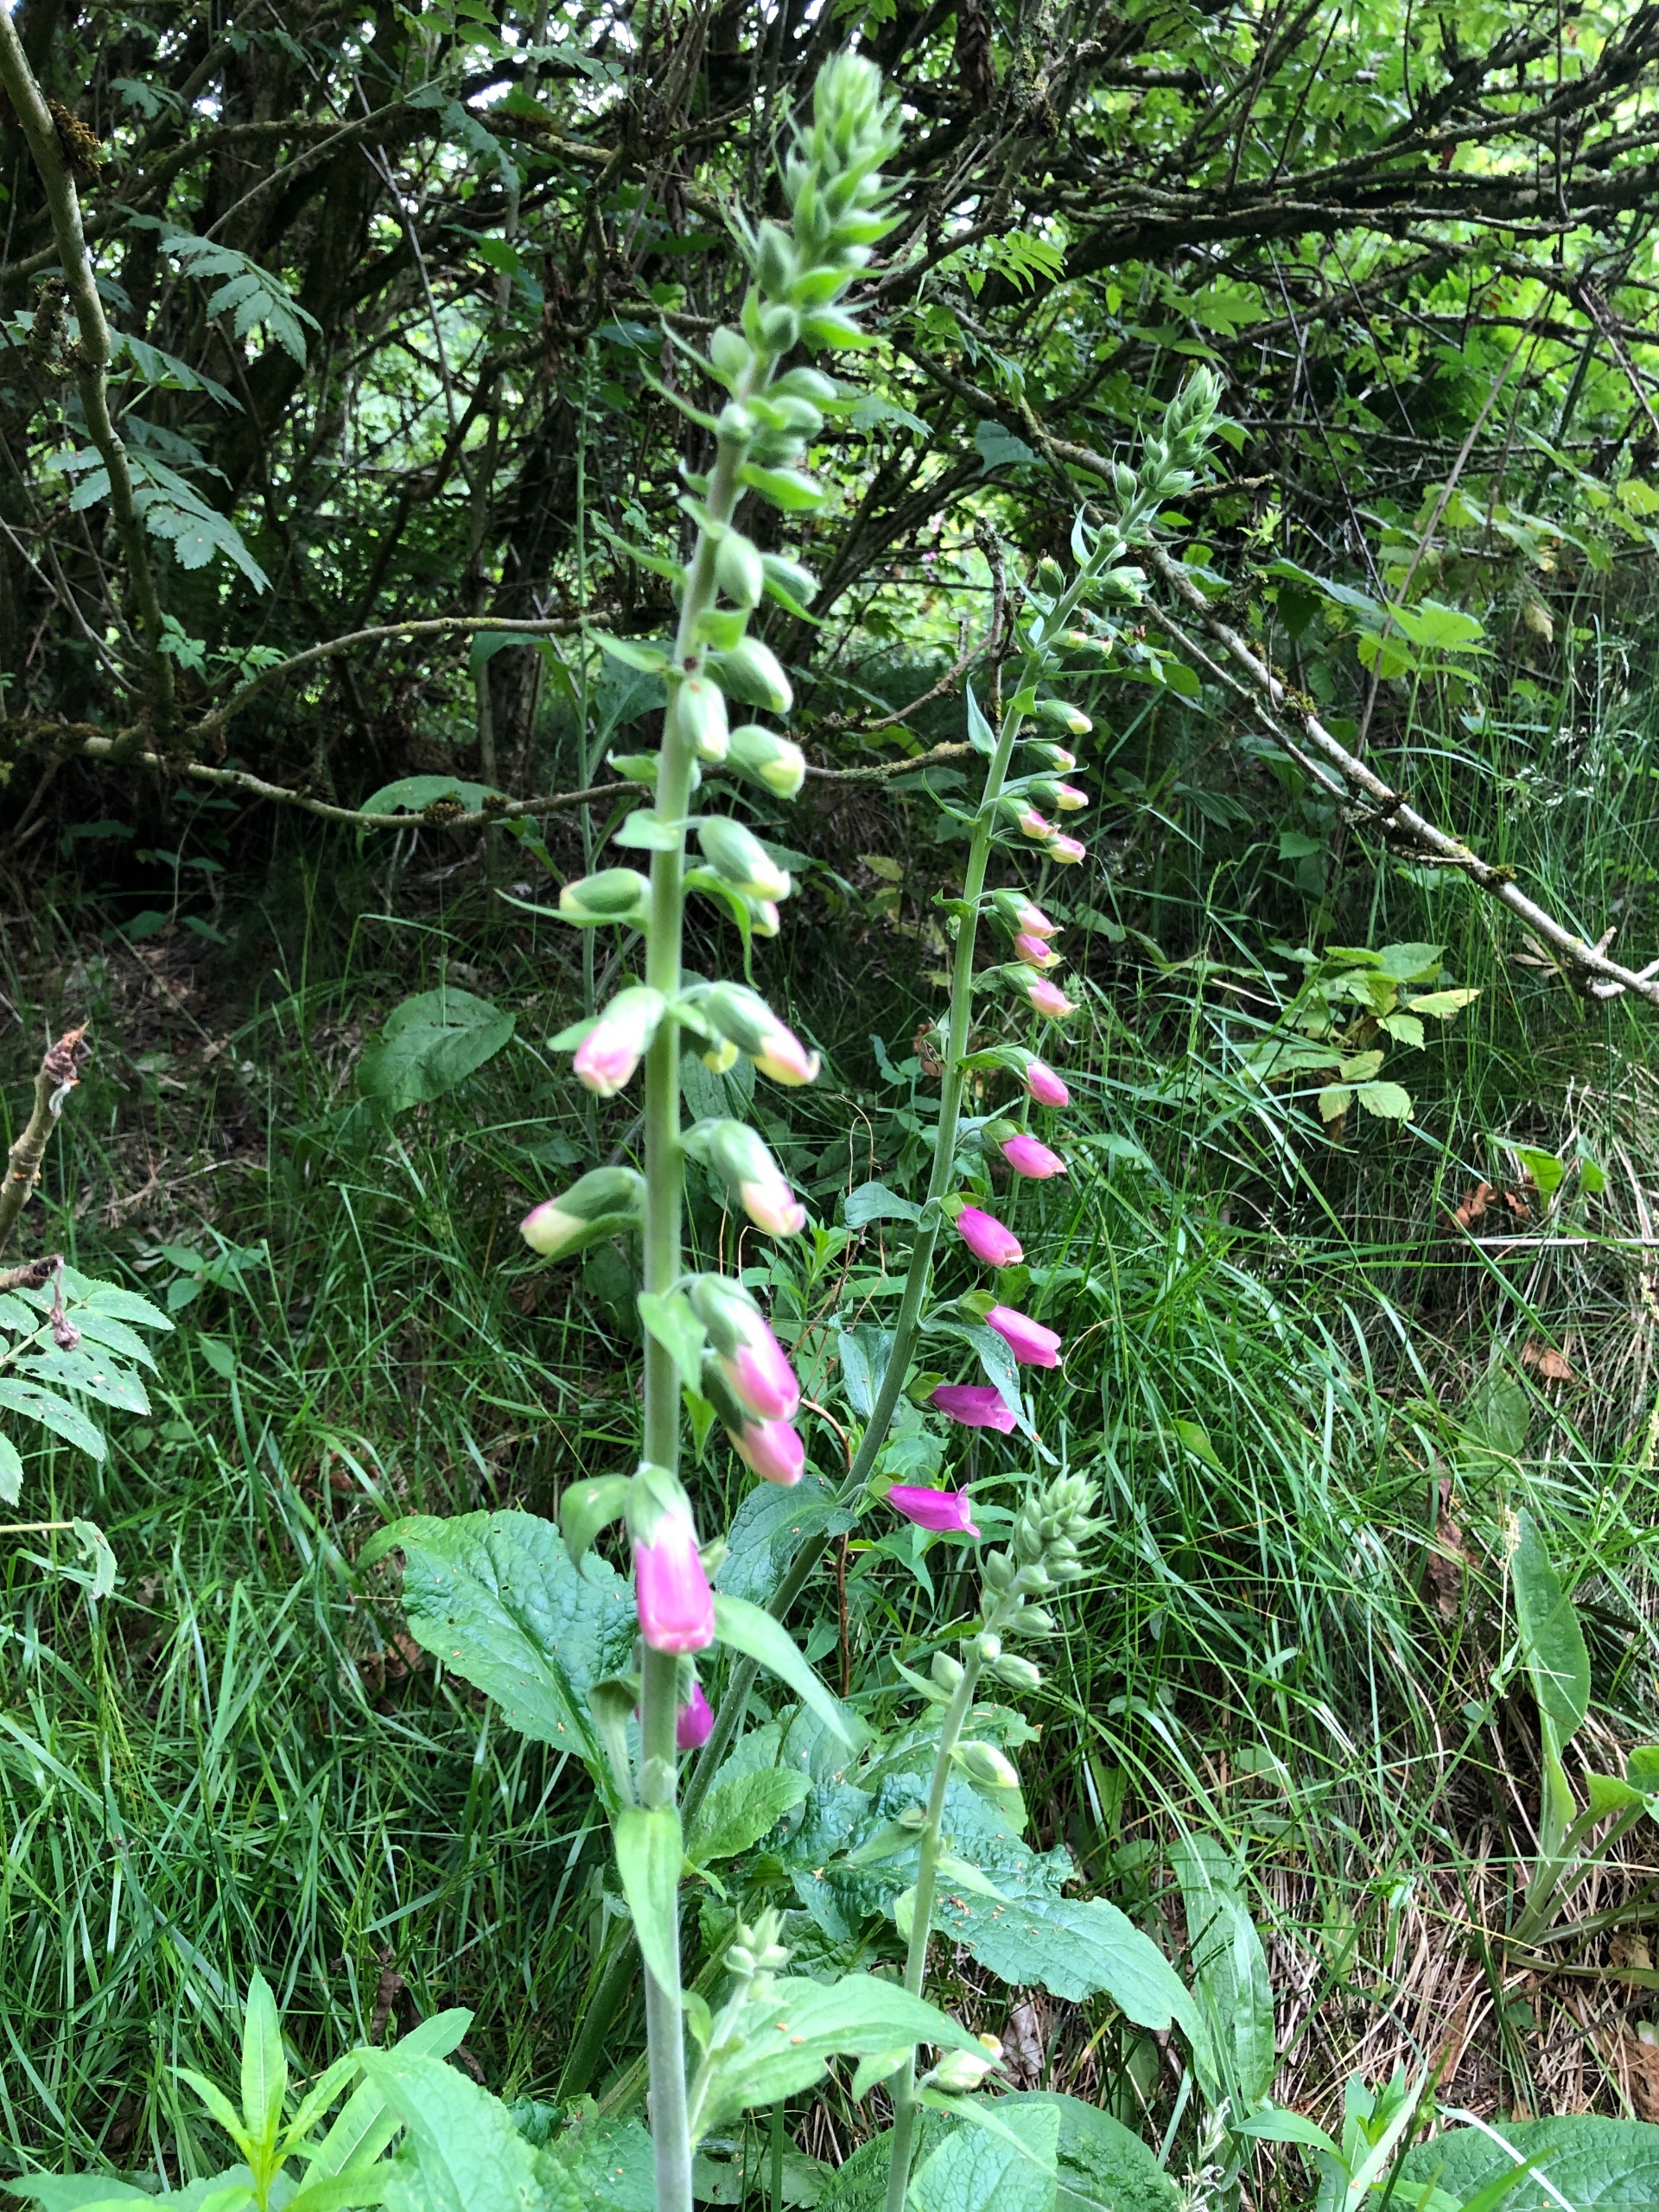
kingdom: Plantae
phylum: Tracheophyta
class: Magnoliopsida
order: Lamiales
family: Plantaginaceae
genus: Digitalis
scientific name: Digitalis purpurea
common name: Almindelig fingerbøl
